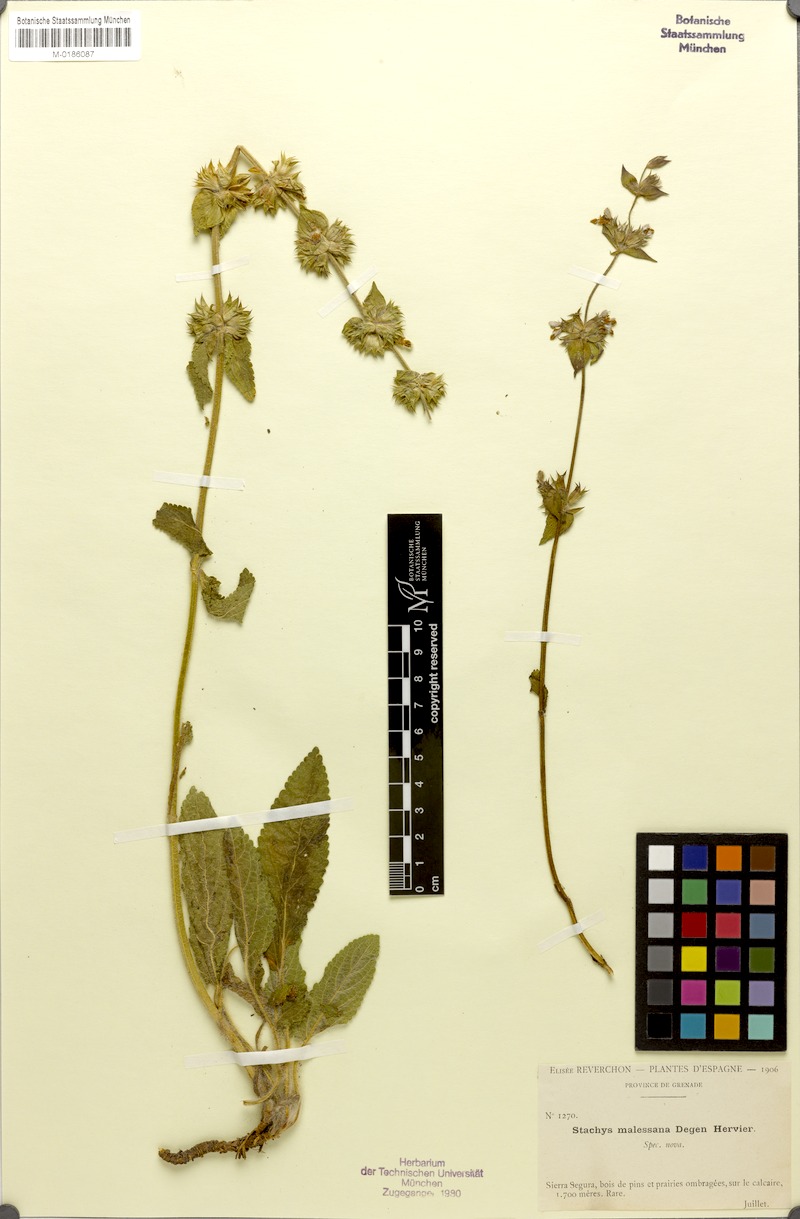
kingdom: Plantae
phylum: Tracheophyta
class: Magnoliopsida
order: Lamiales
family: Lamiaceae
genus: Stachys
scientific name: Stachys
